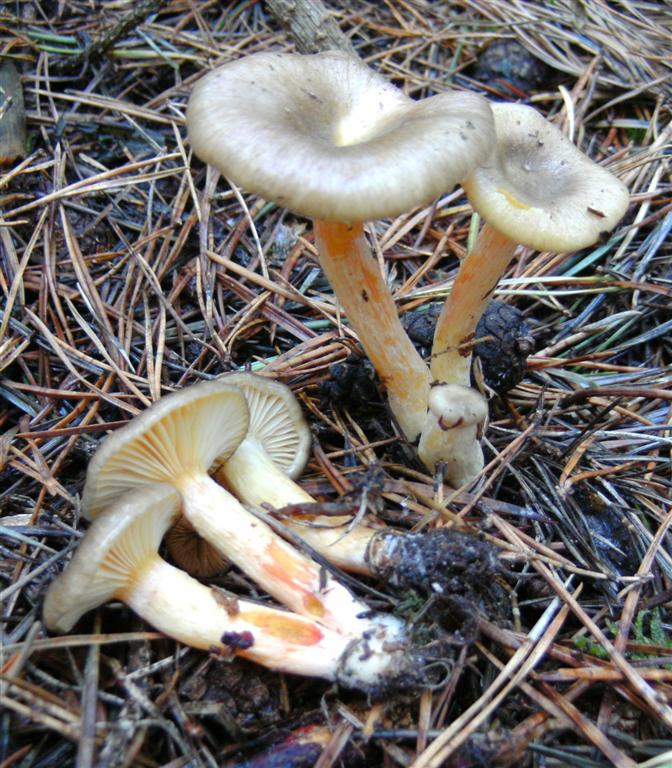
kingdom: Fungi
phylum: Basidiomycota
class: Agaricomycetes
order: Agaricales
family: Hygrophoraceae
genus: Hygrophorus
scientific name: Hygrophorus hypothejus
